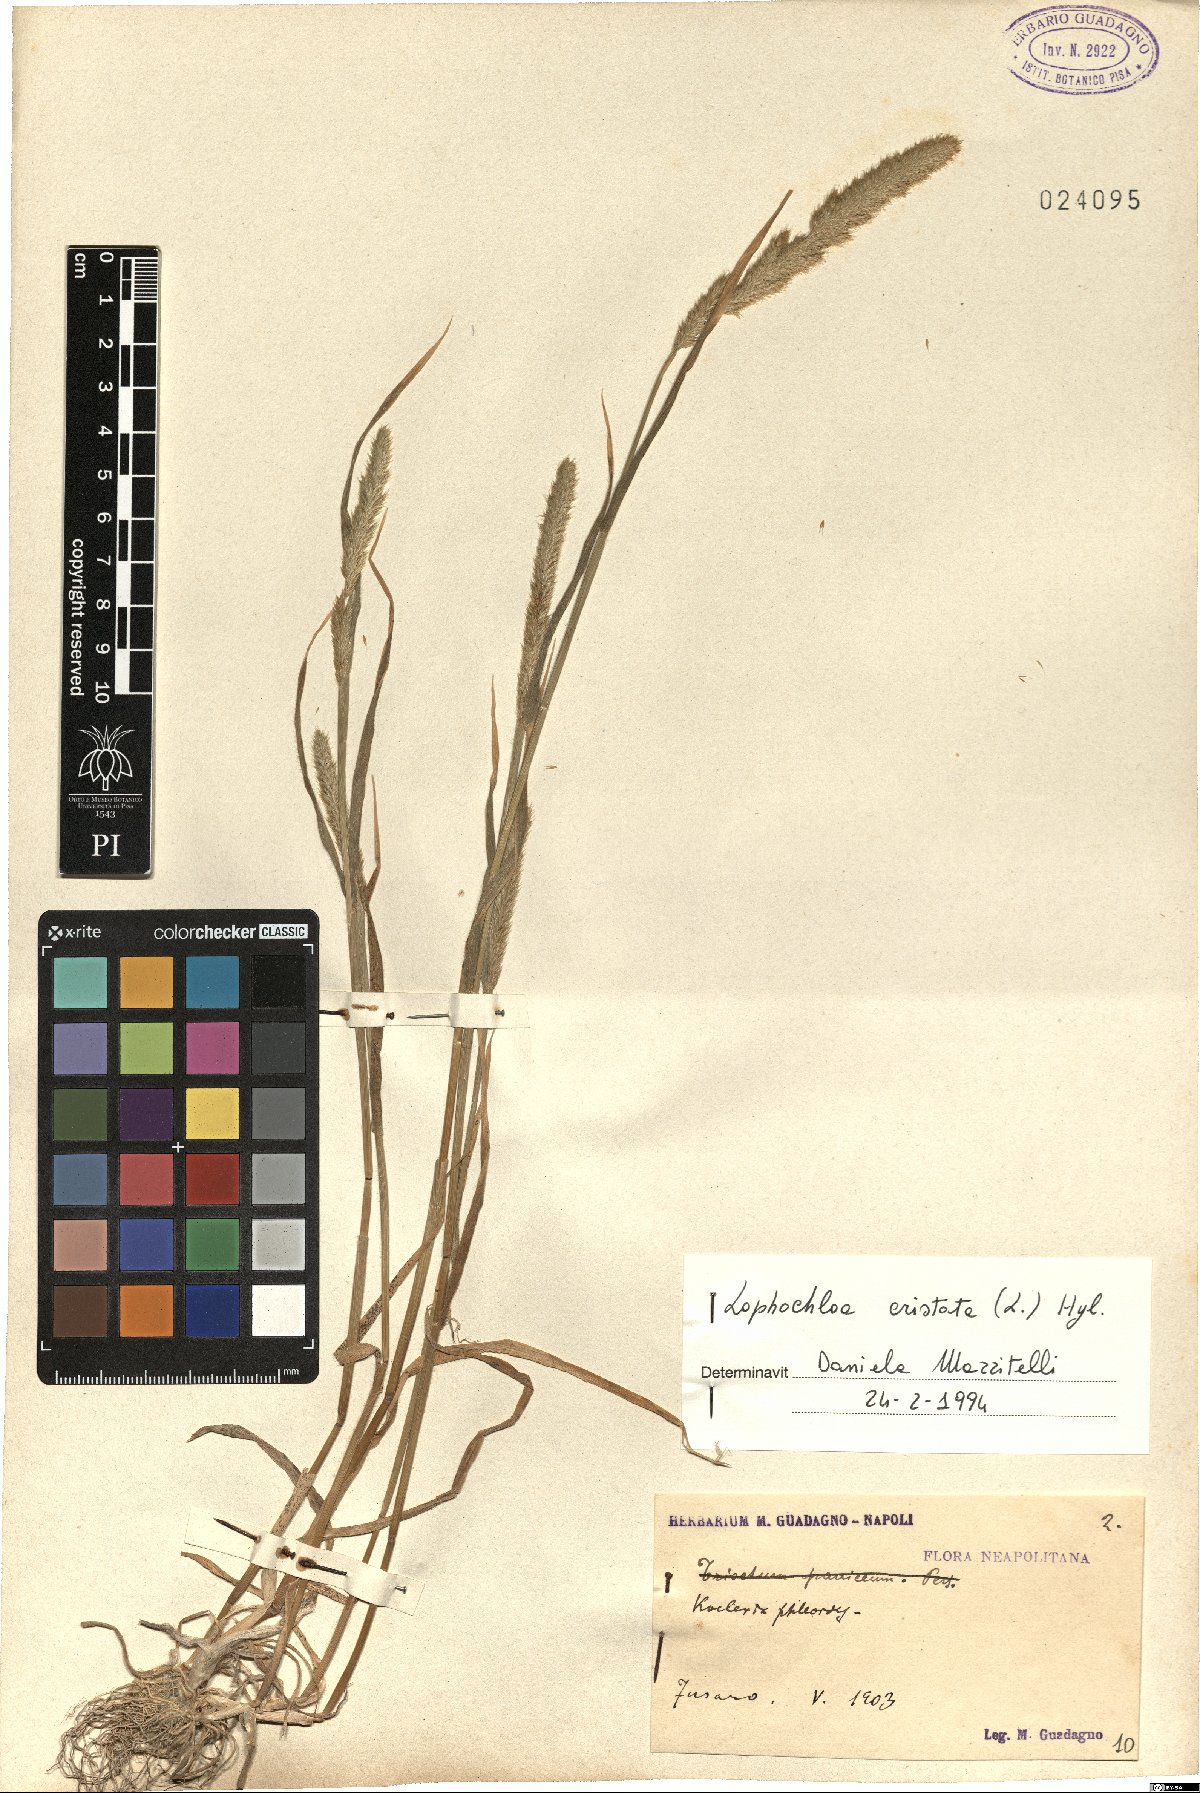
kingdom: Plantae
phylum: Tracheophyta
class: Liliopsida
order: Poales
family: Poaceae
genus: Rostraria
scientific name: Rostraria cristata
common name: Mediterranean hair-grass
